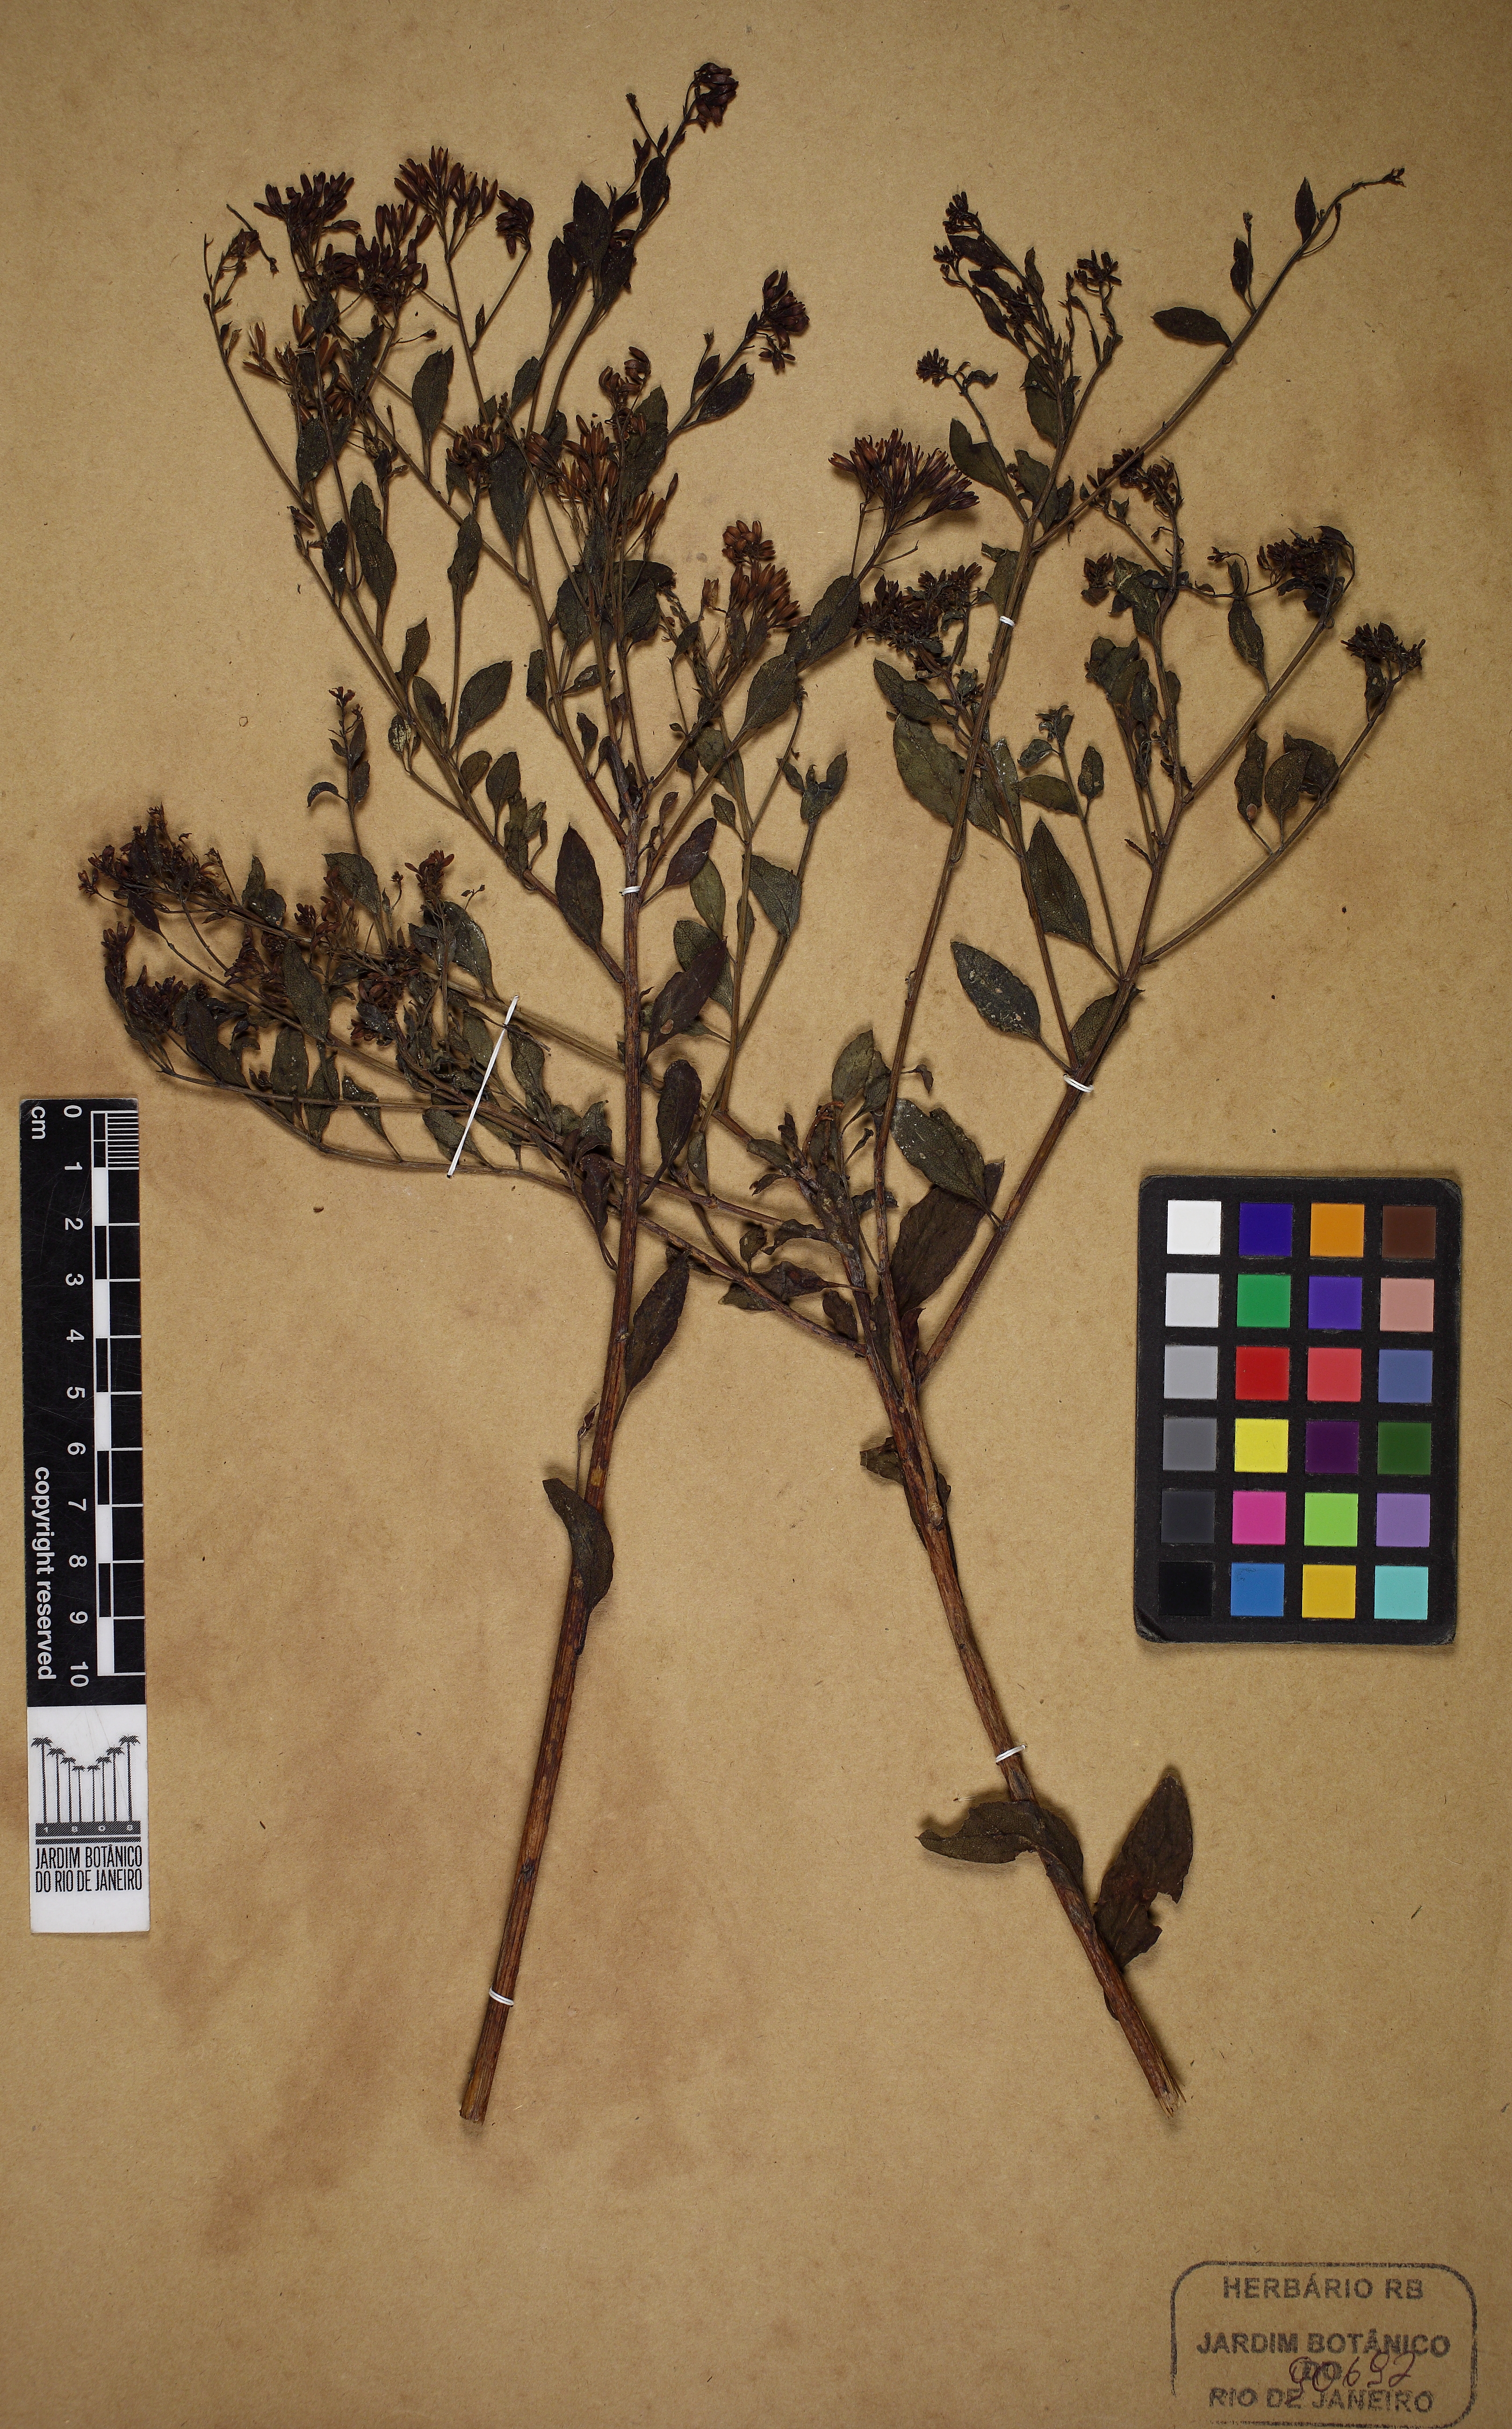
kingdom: Plantae
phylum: Tracheophyta
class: Magnoliopsida
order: Asterales
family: Asteraceae
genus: Hoehnephytum
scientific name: Hoehnephytum trixoides
